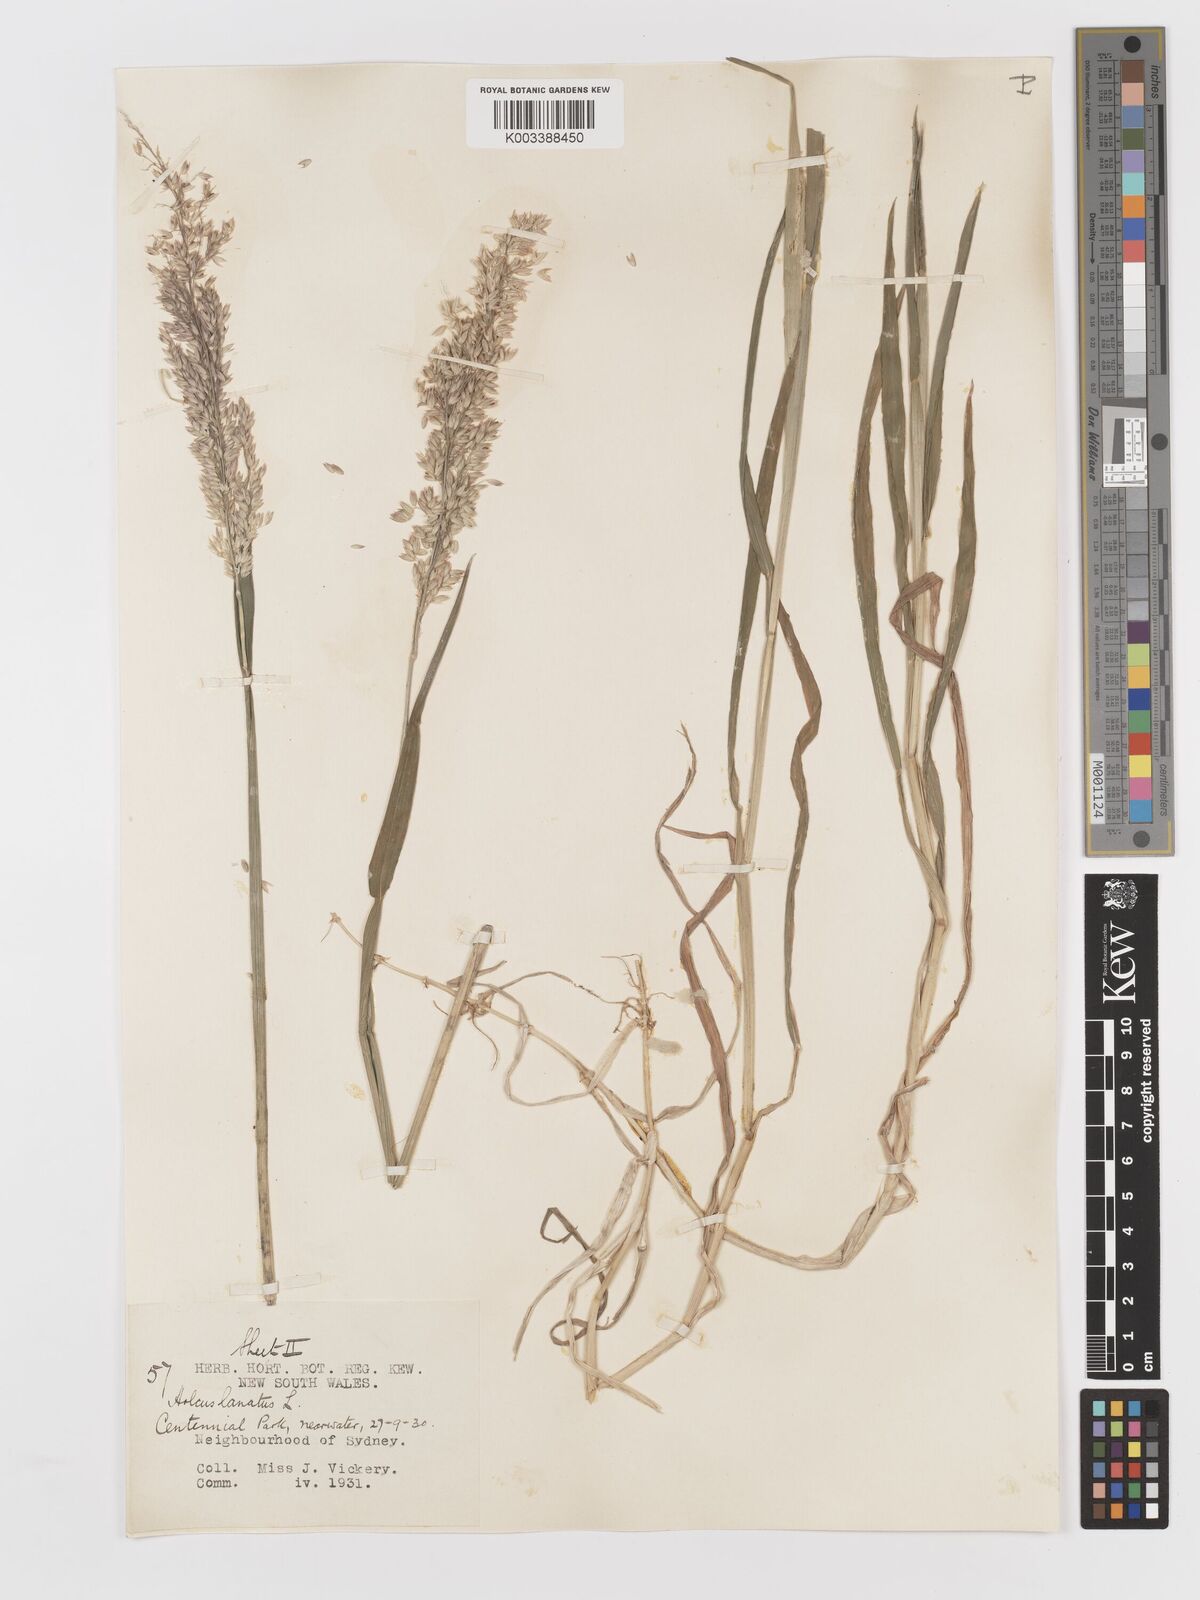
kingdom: Plantae
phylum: Tracheophyta
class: Liliopsida
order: Poales
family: Poaceae
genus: Holcus
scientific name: Holcus lanatus
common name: Yorkshire-fog
